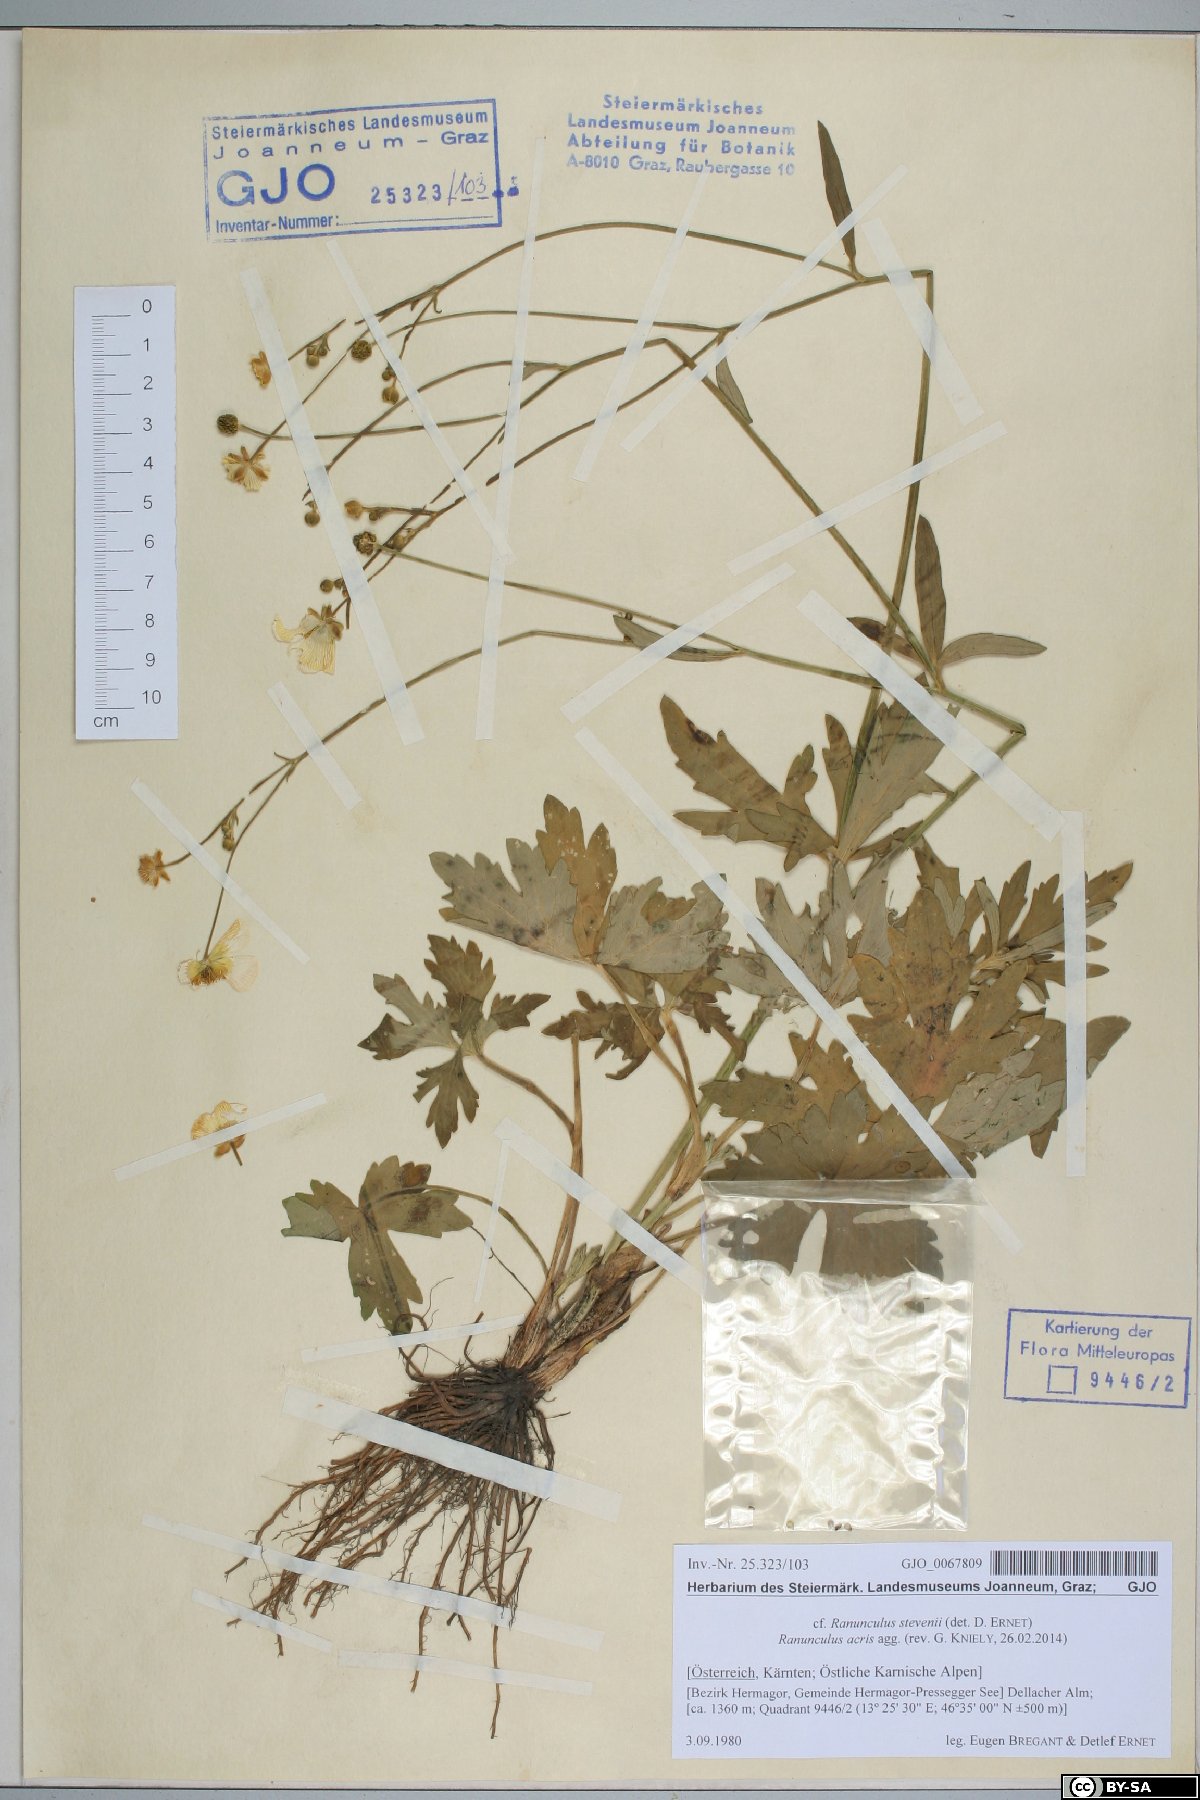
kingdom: Plantae
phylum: Tracheophyta
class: Magnoliopsida
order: Ranunculales
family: Ranunculaceae
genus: Ranunculus
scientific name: Ranunculus acris
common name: Meadow buttercup
